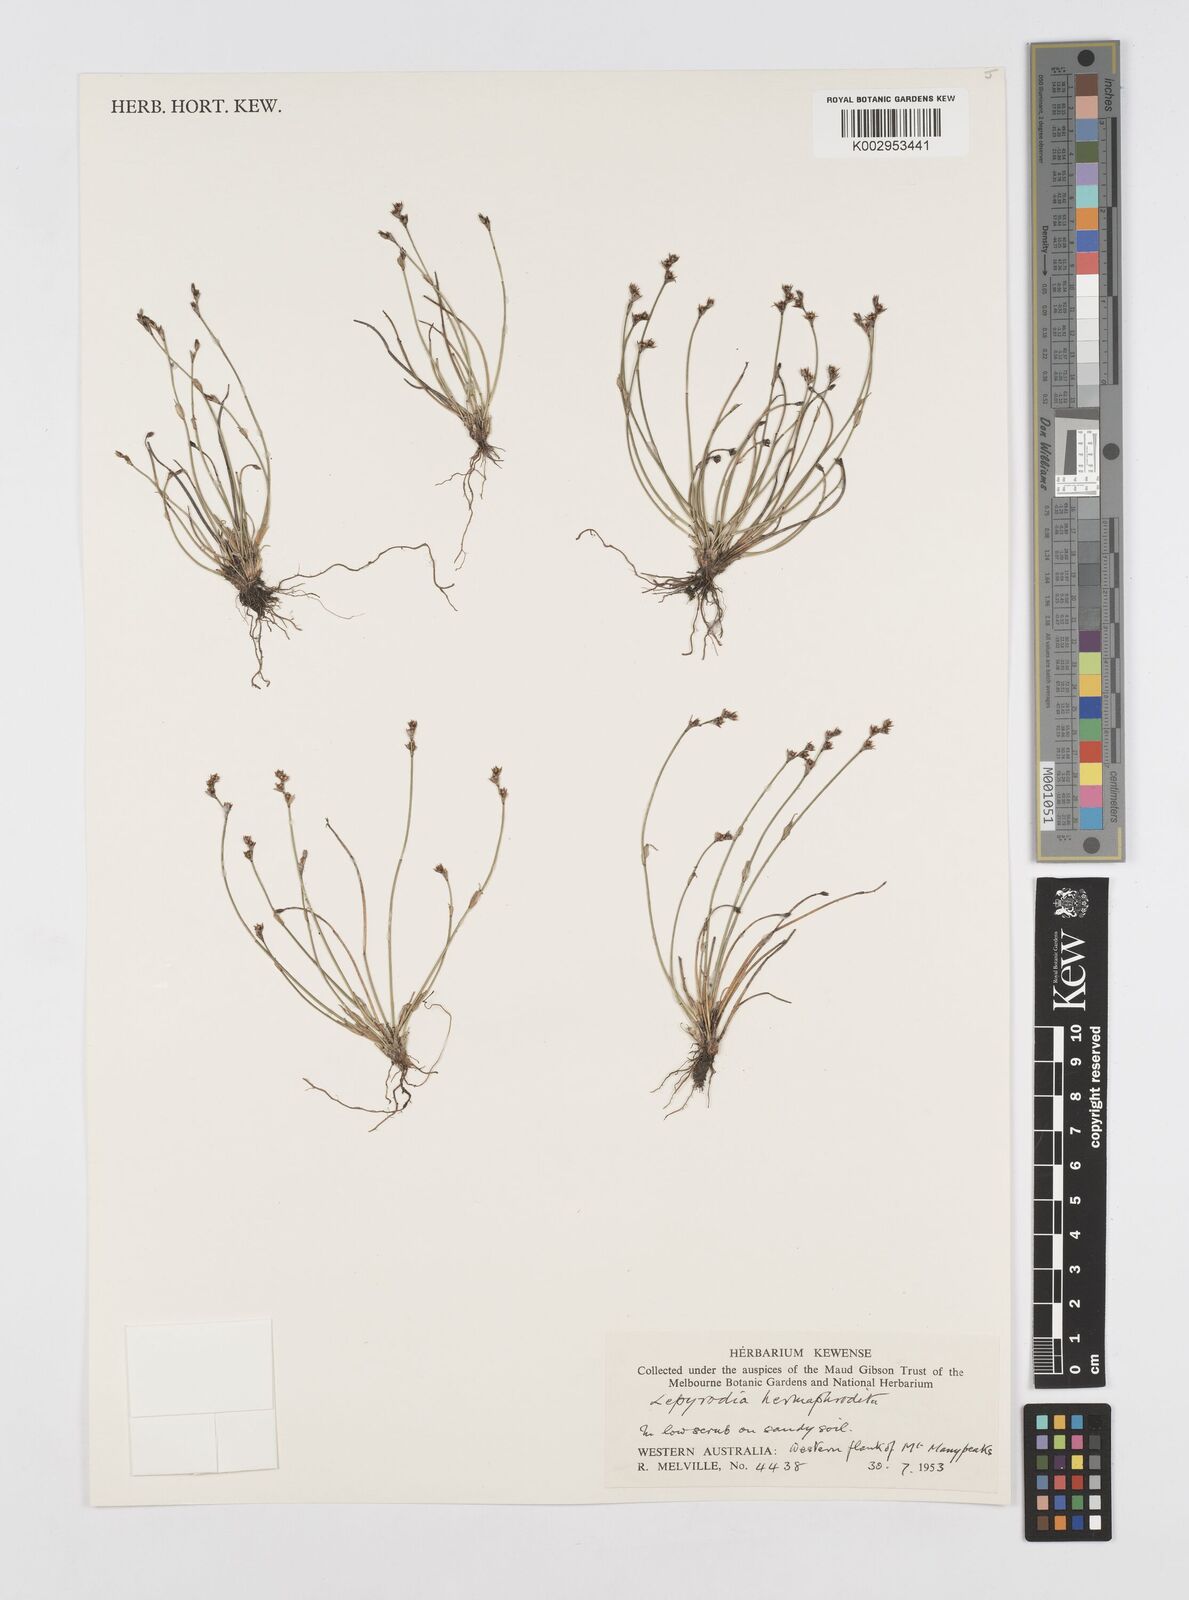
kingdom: Plantae
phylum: Tracheophyta
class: Liliopsida
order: Poales
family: Restionaceae
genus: Lepyrodia
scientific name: Lepyrodia hermaphrodita
